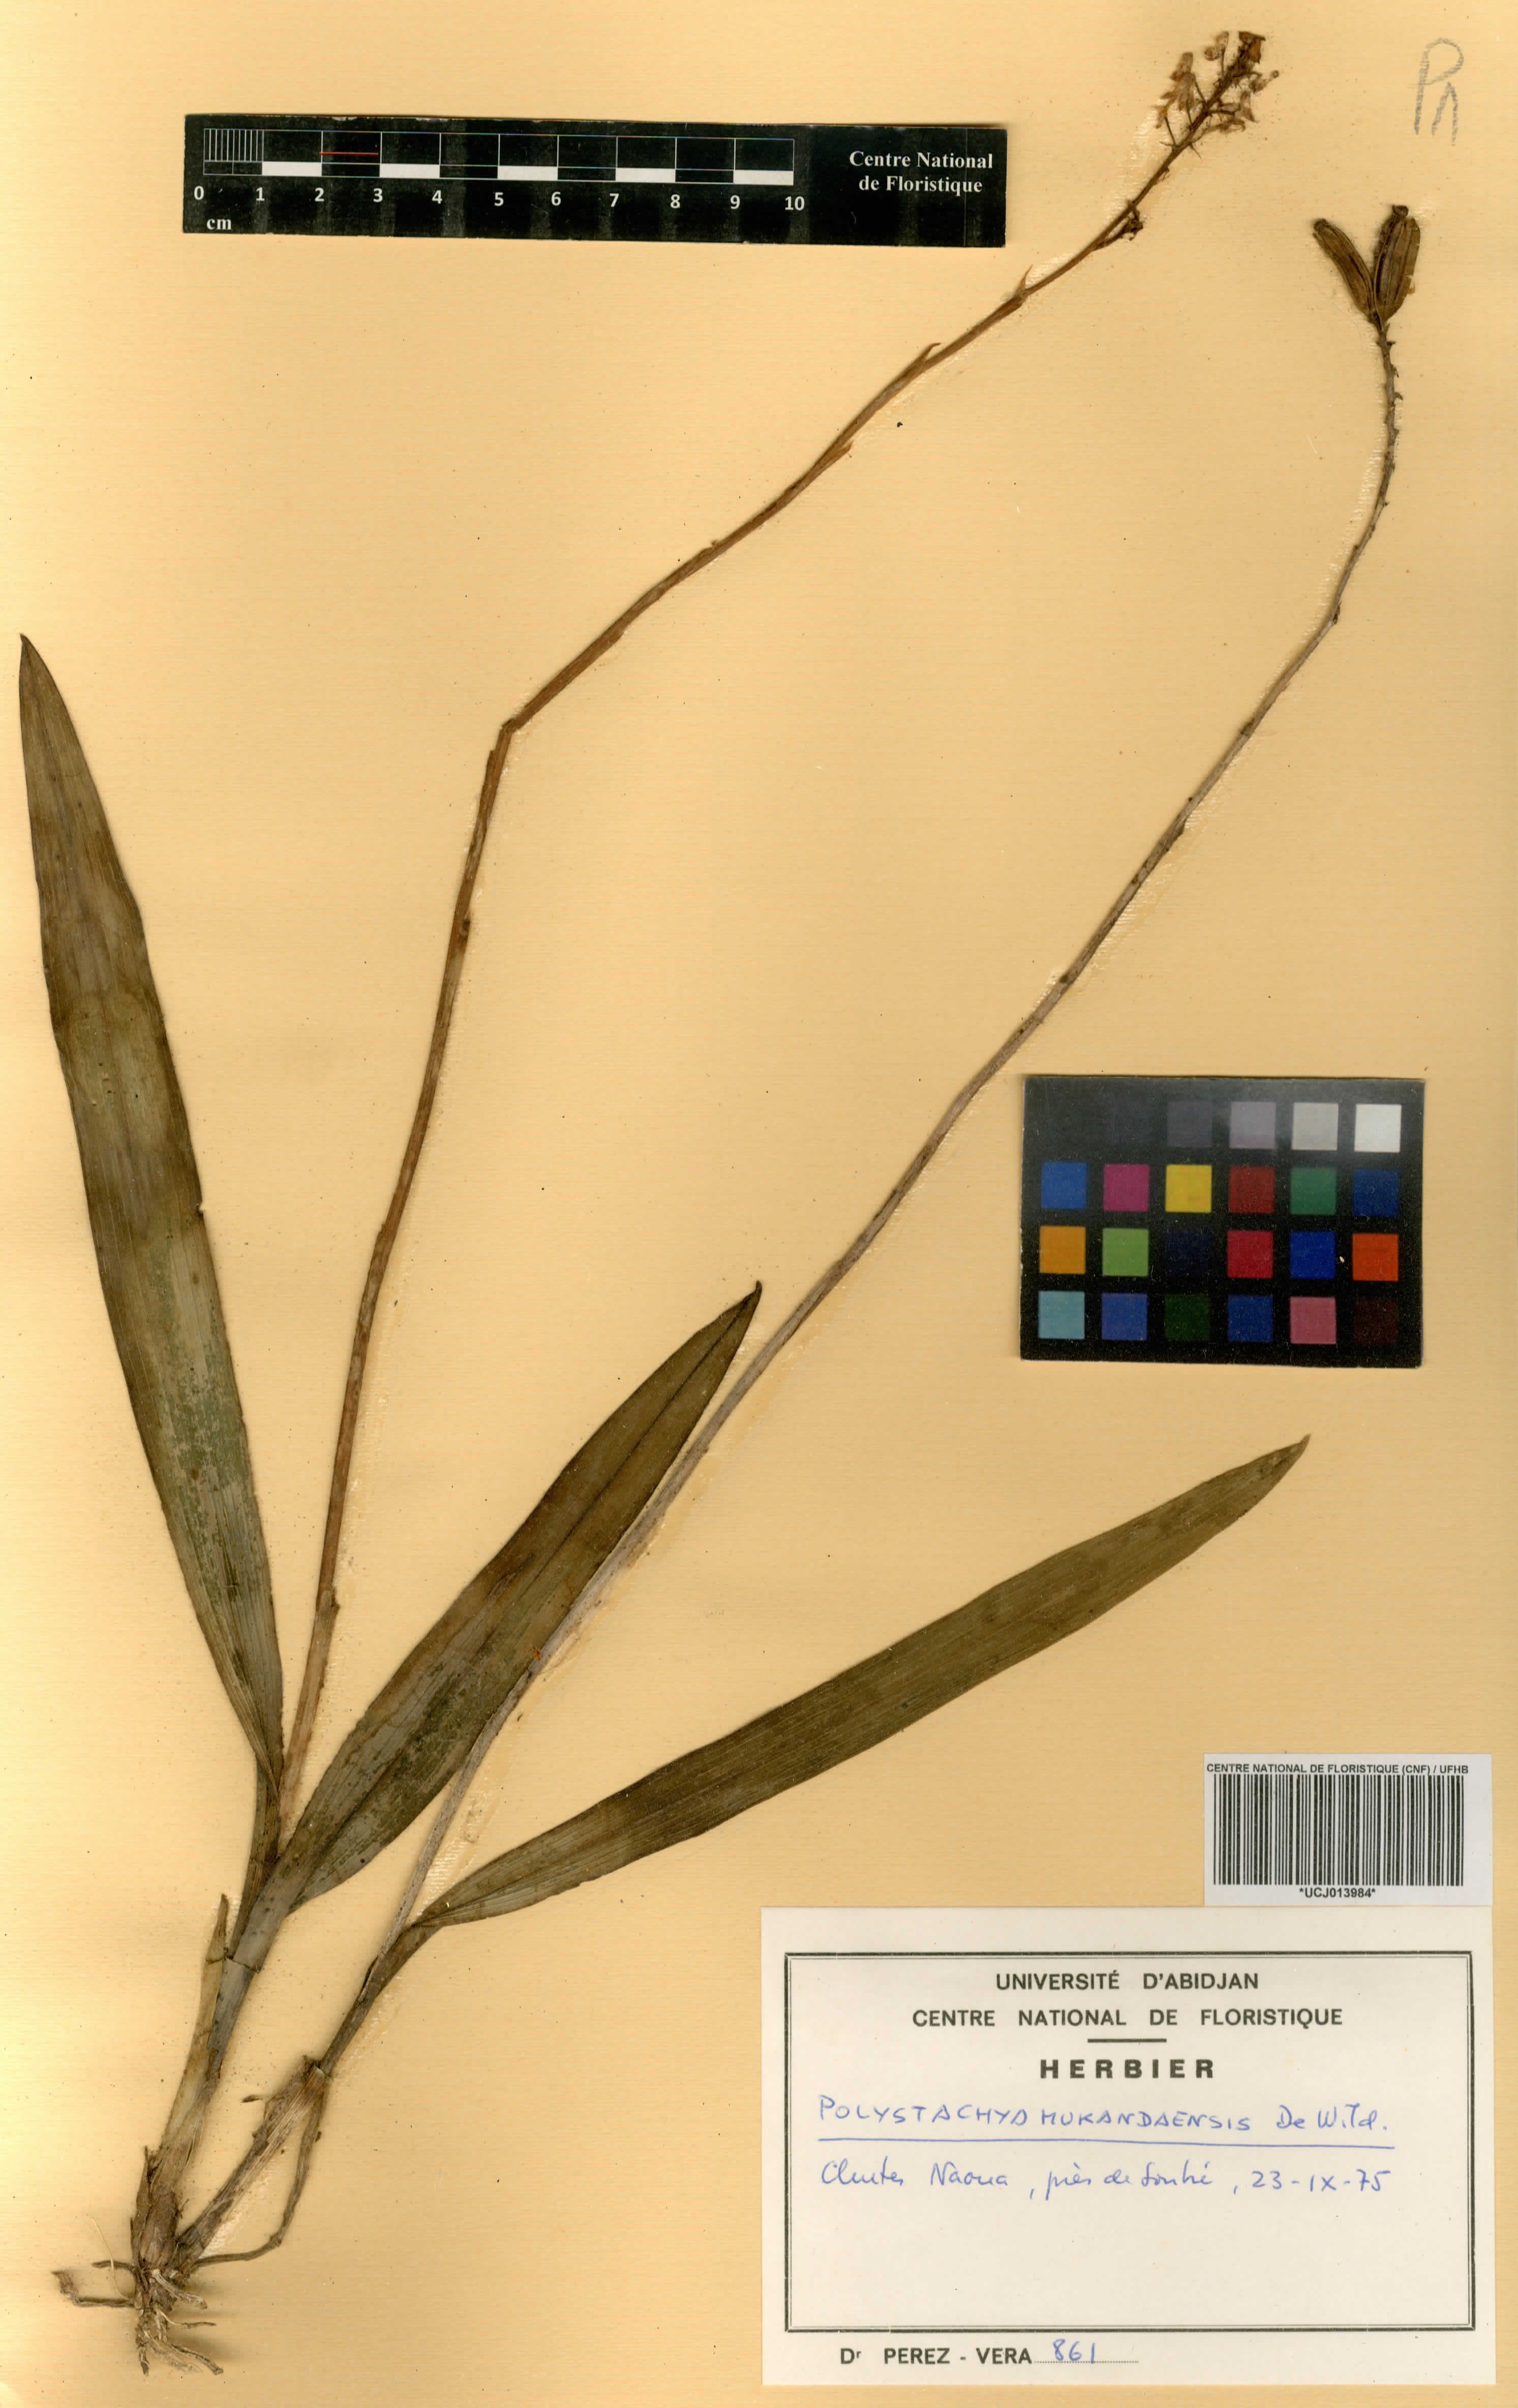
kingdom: Plantae
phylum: Tracheophyta
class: Liliopsida
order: Asparagales
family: Orchidaceae
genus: Polystachya
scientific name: Polystachya mukandaensis
